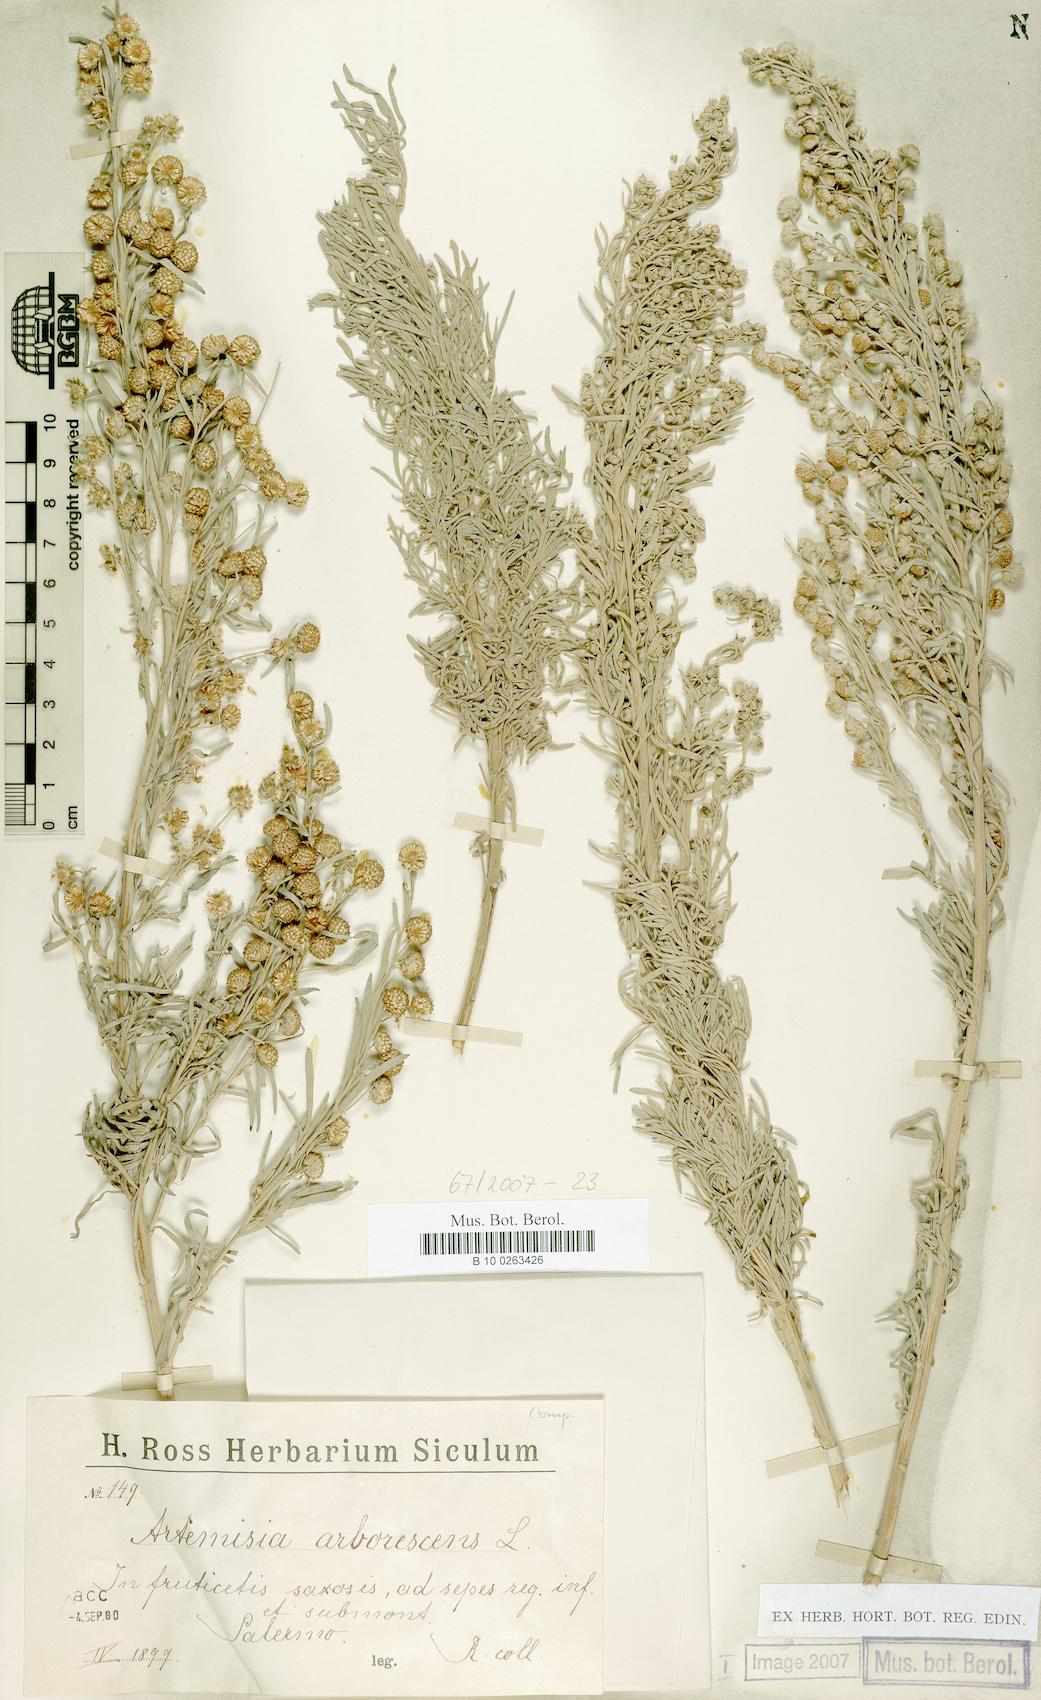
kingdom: Plantae
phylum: Tracheophyta
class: Magnoliopsida
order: Asterales
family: Asteraceae
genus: Artemisia
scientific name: Artemisia arborescens
